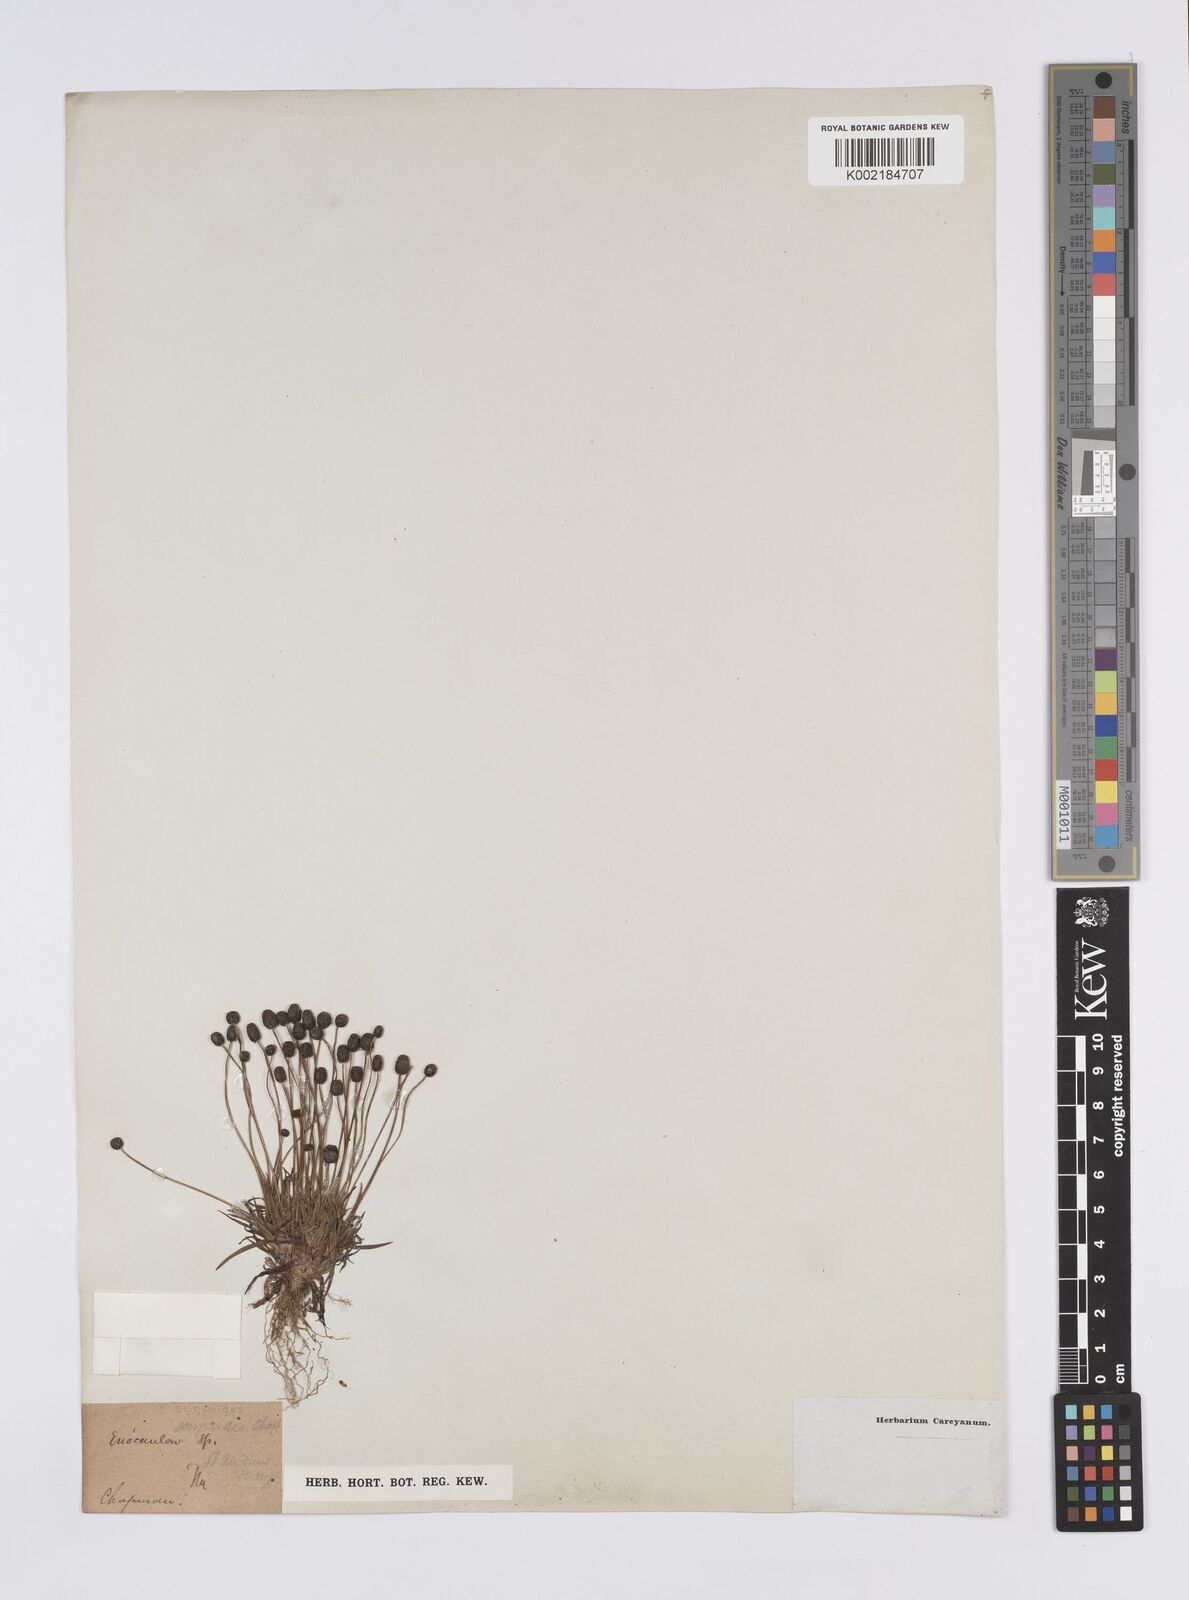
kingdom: Plantae
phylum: Tracheophyta
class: Liliopsida
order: Poales
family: Eriocaulaceae
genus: Eriocaulon
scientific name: Eriocaulon
